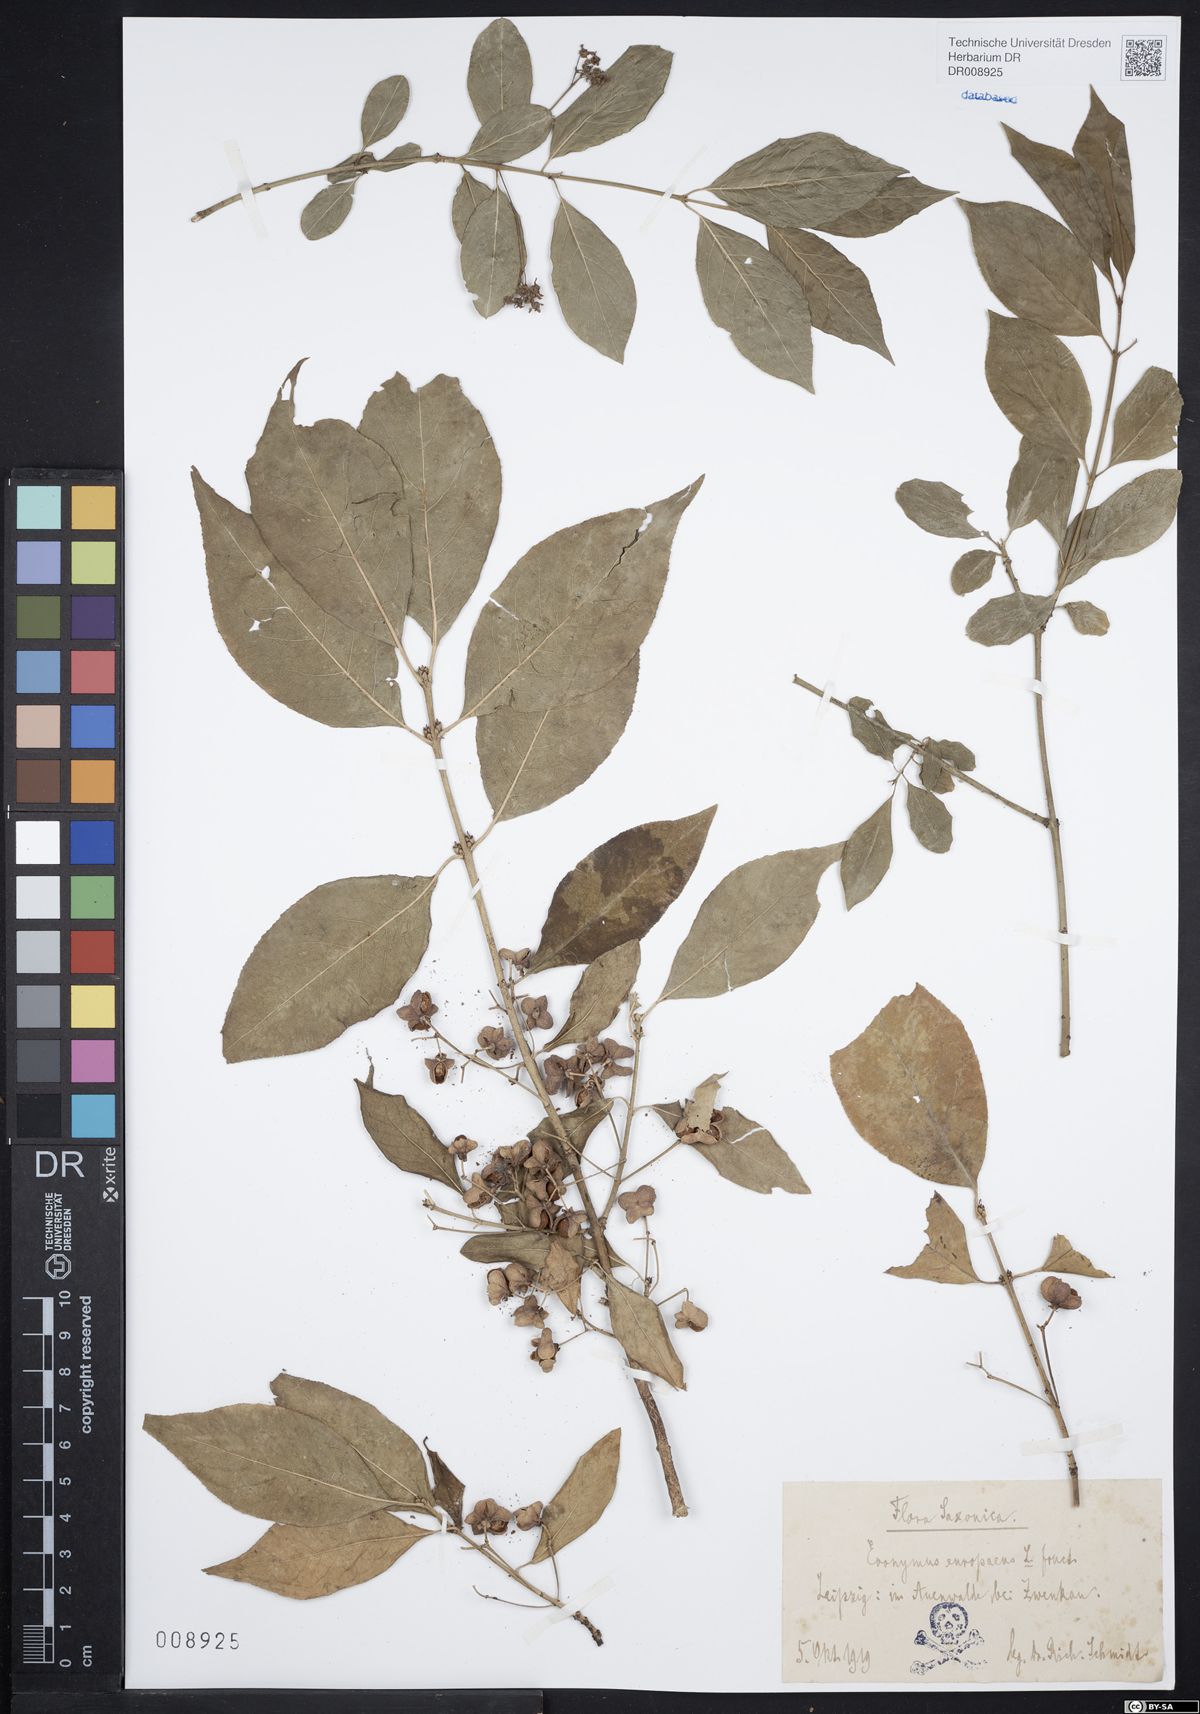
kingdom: Plantae
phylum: Tracheophyta
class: Magnoliopsida
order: Celastrales
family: Celastraceae
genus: Euonymus
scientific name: Euonymus europaeus
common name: Spindle
